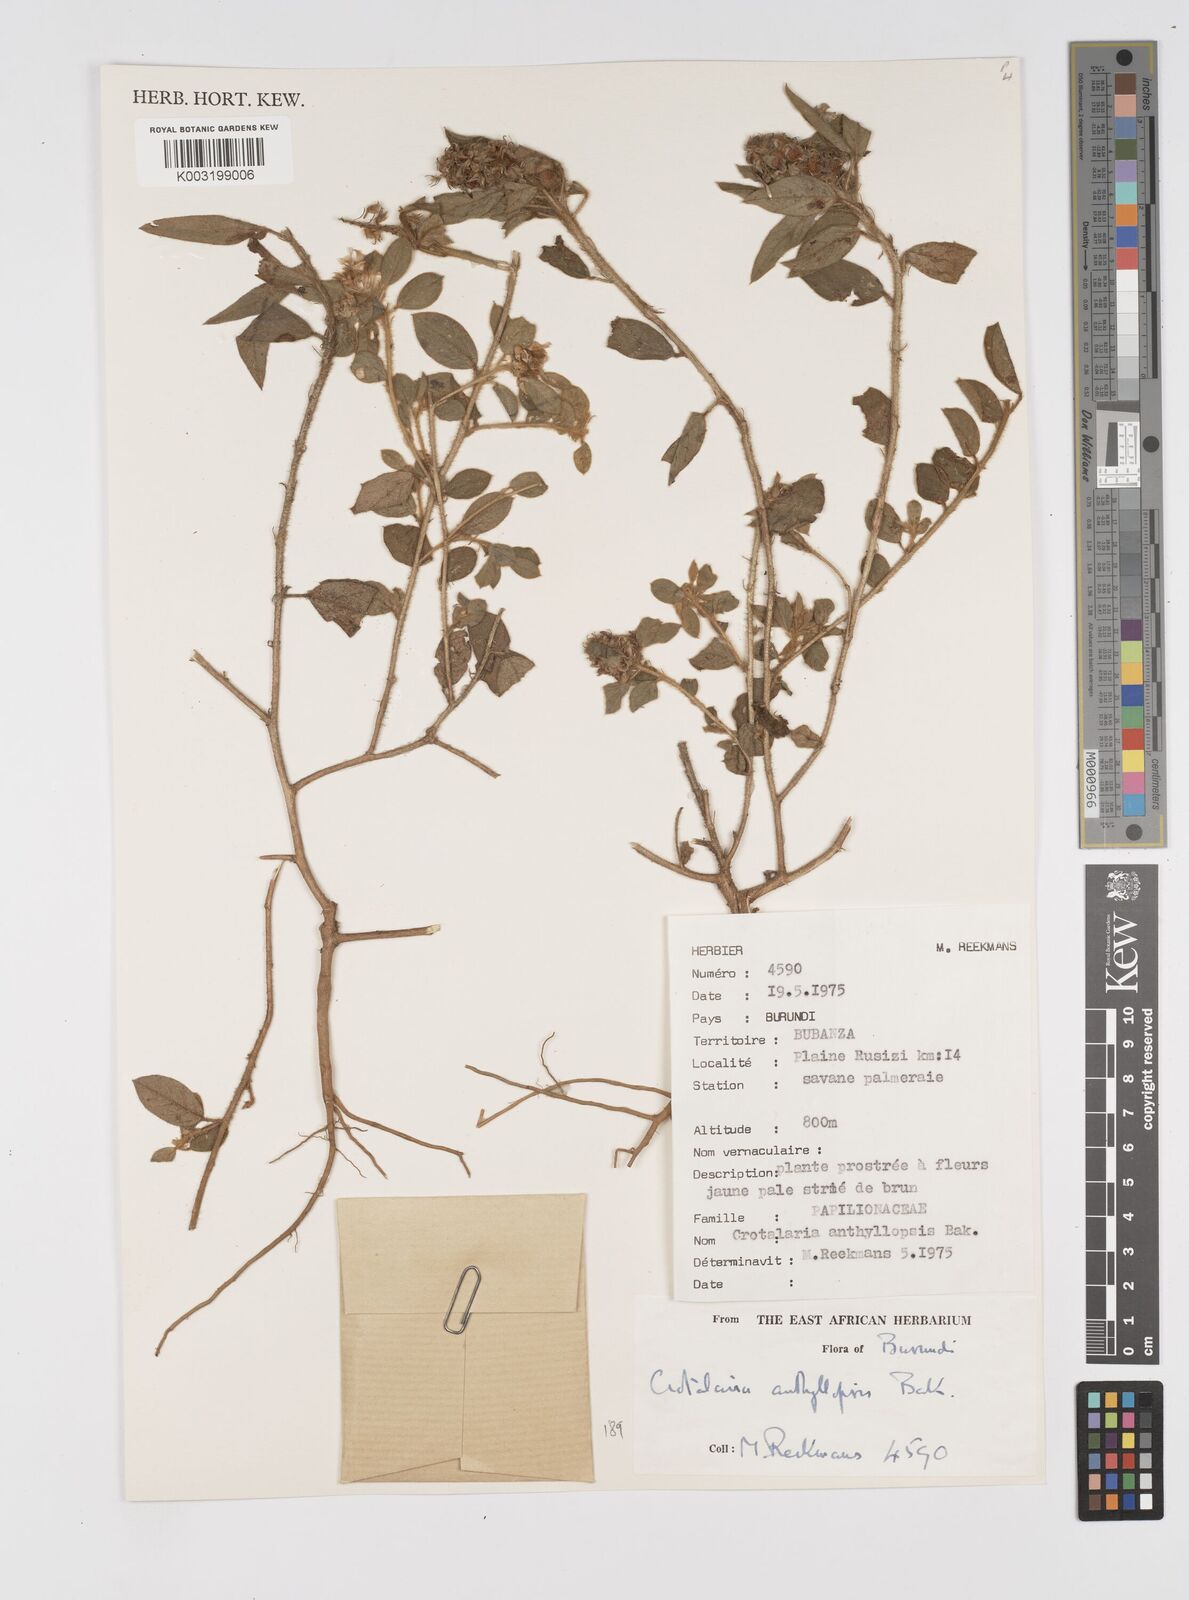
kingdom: Plantae
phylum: Tracheophyta
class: Magnoliopsida
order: Fabales
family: Fabaceae
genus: Crotalaria
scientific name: Crotalaria anthyllopsis
